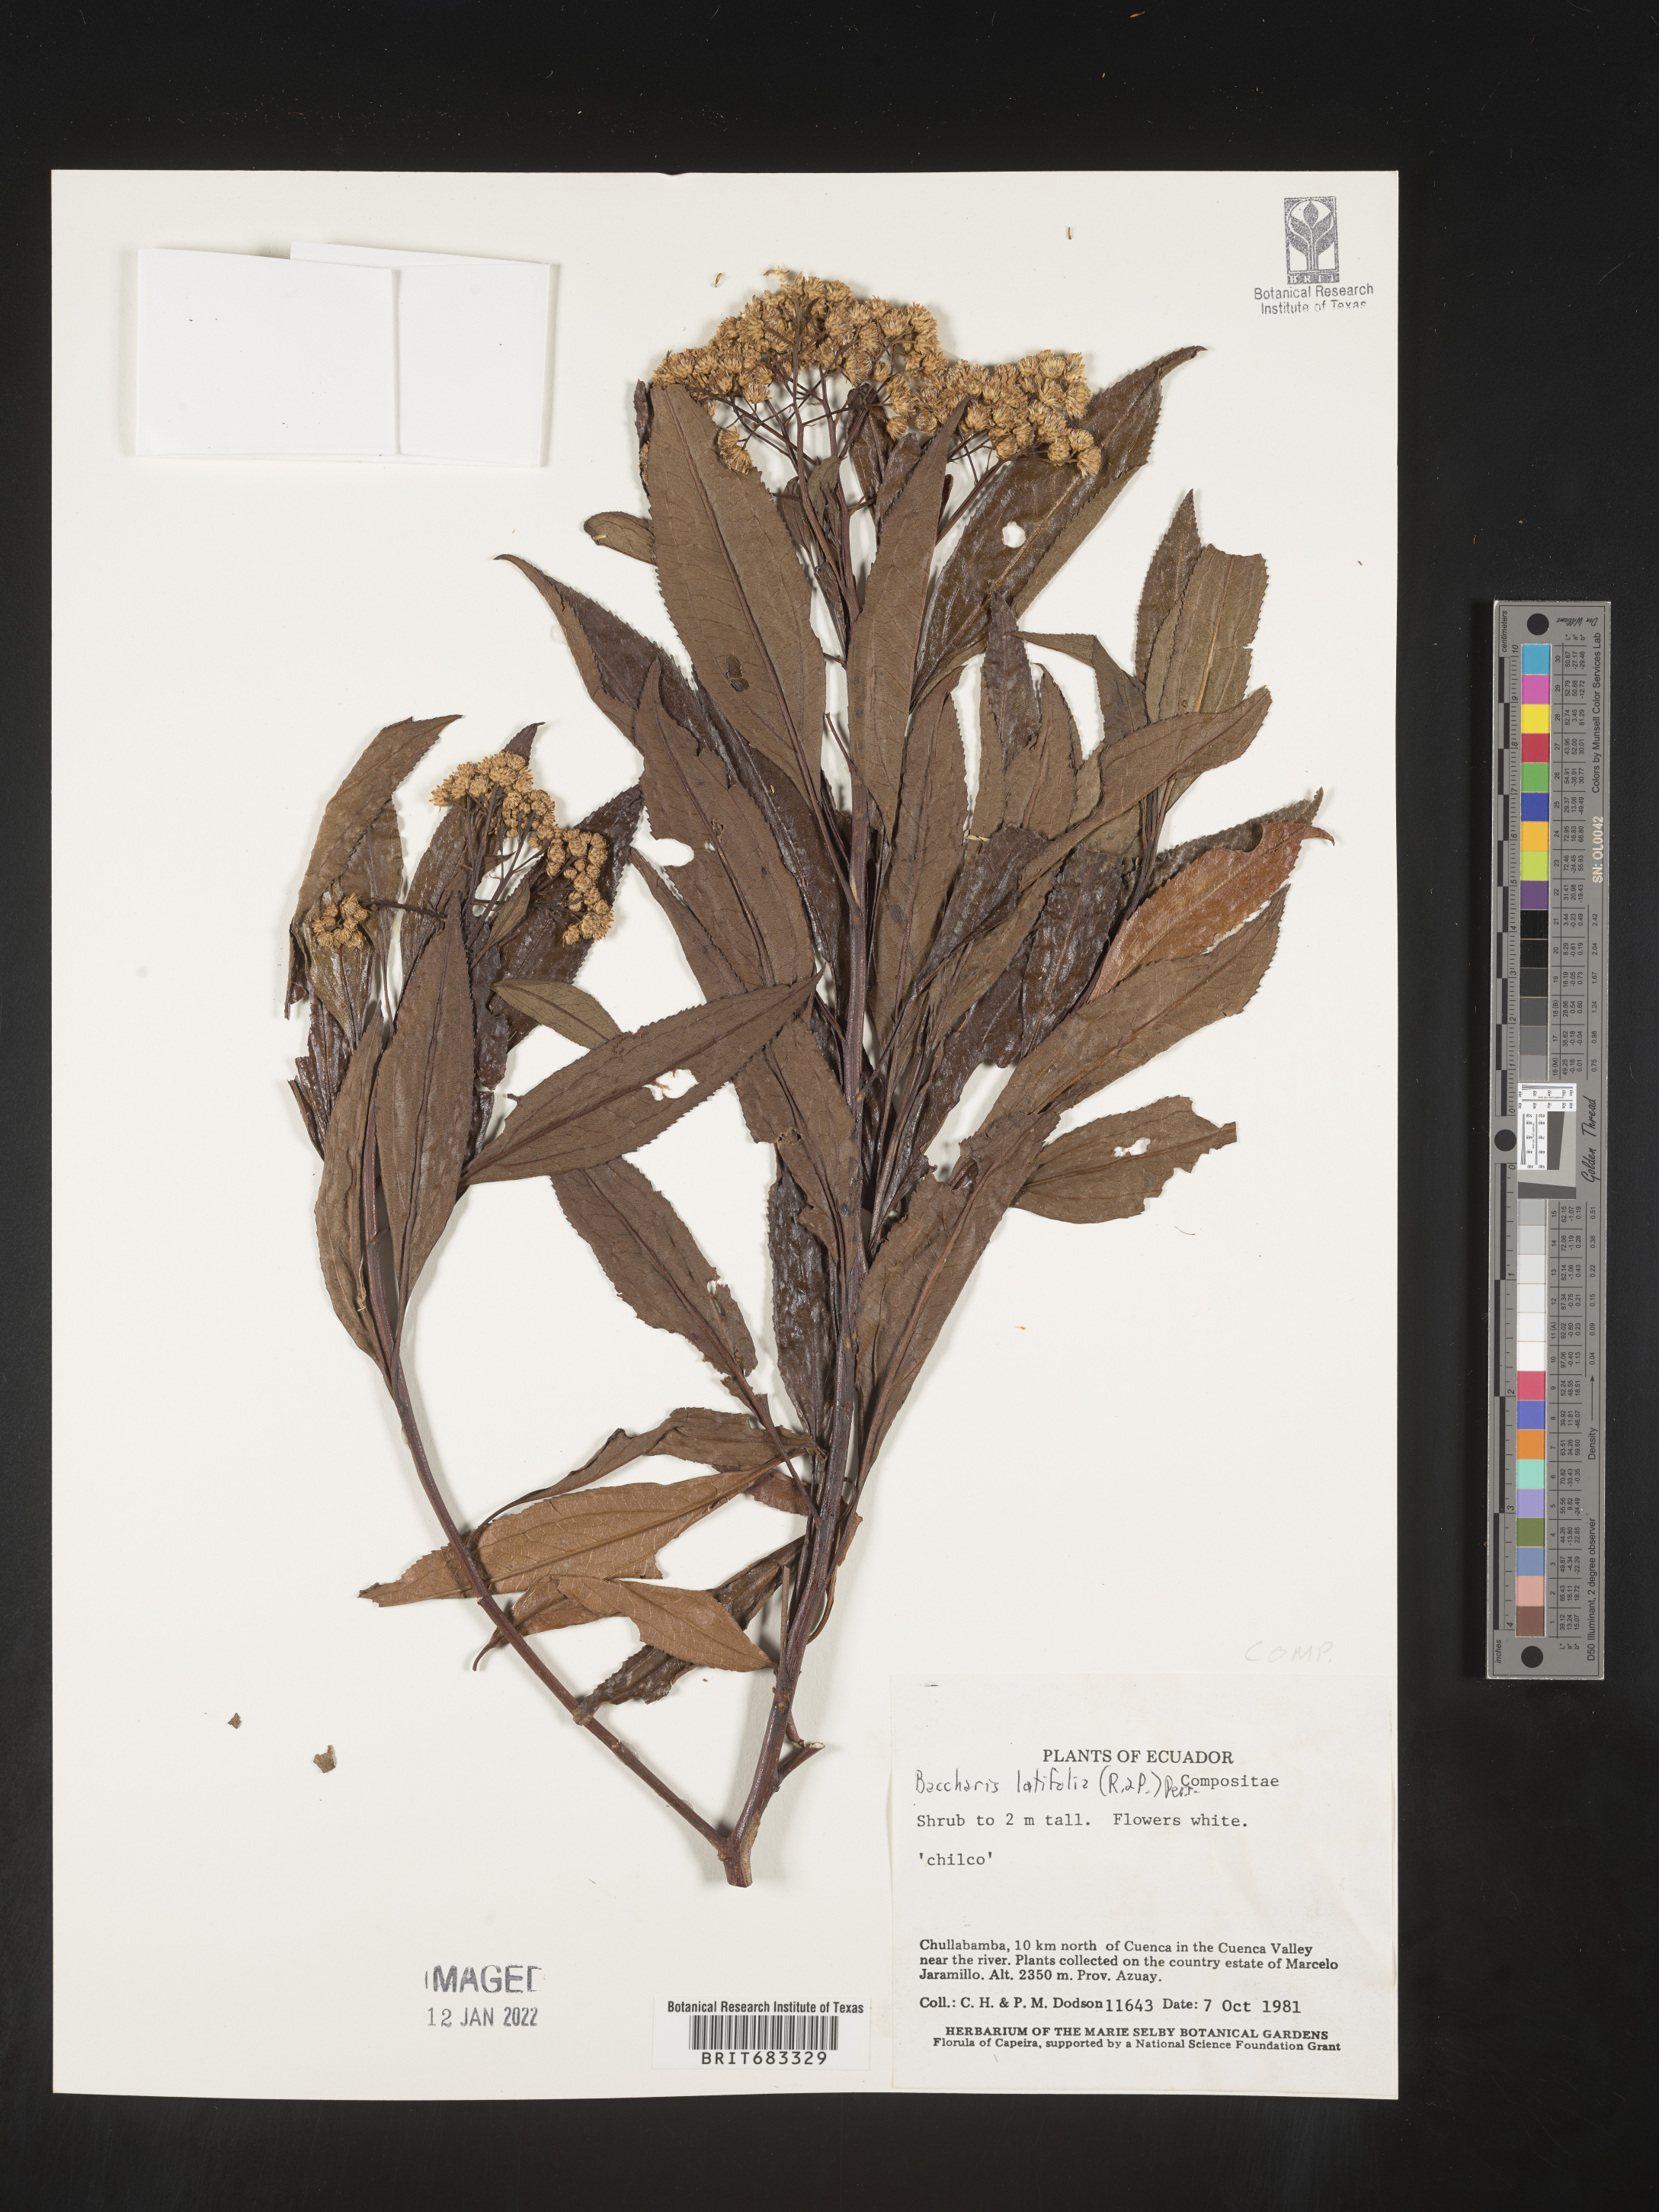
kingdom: Plantae
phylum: Tracheophyta
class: Magnoliopsida
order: Asterales
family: Asteraceae
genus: Baccharis
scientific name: Baccharis
